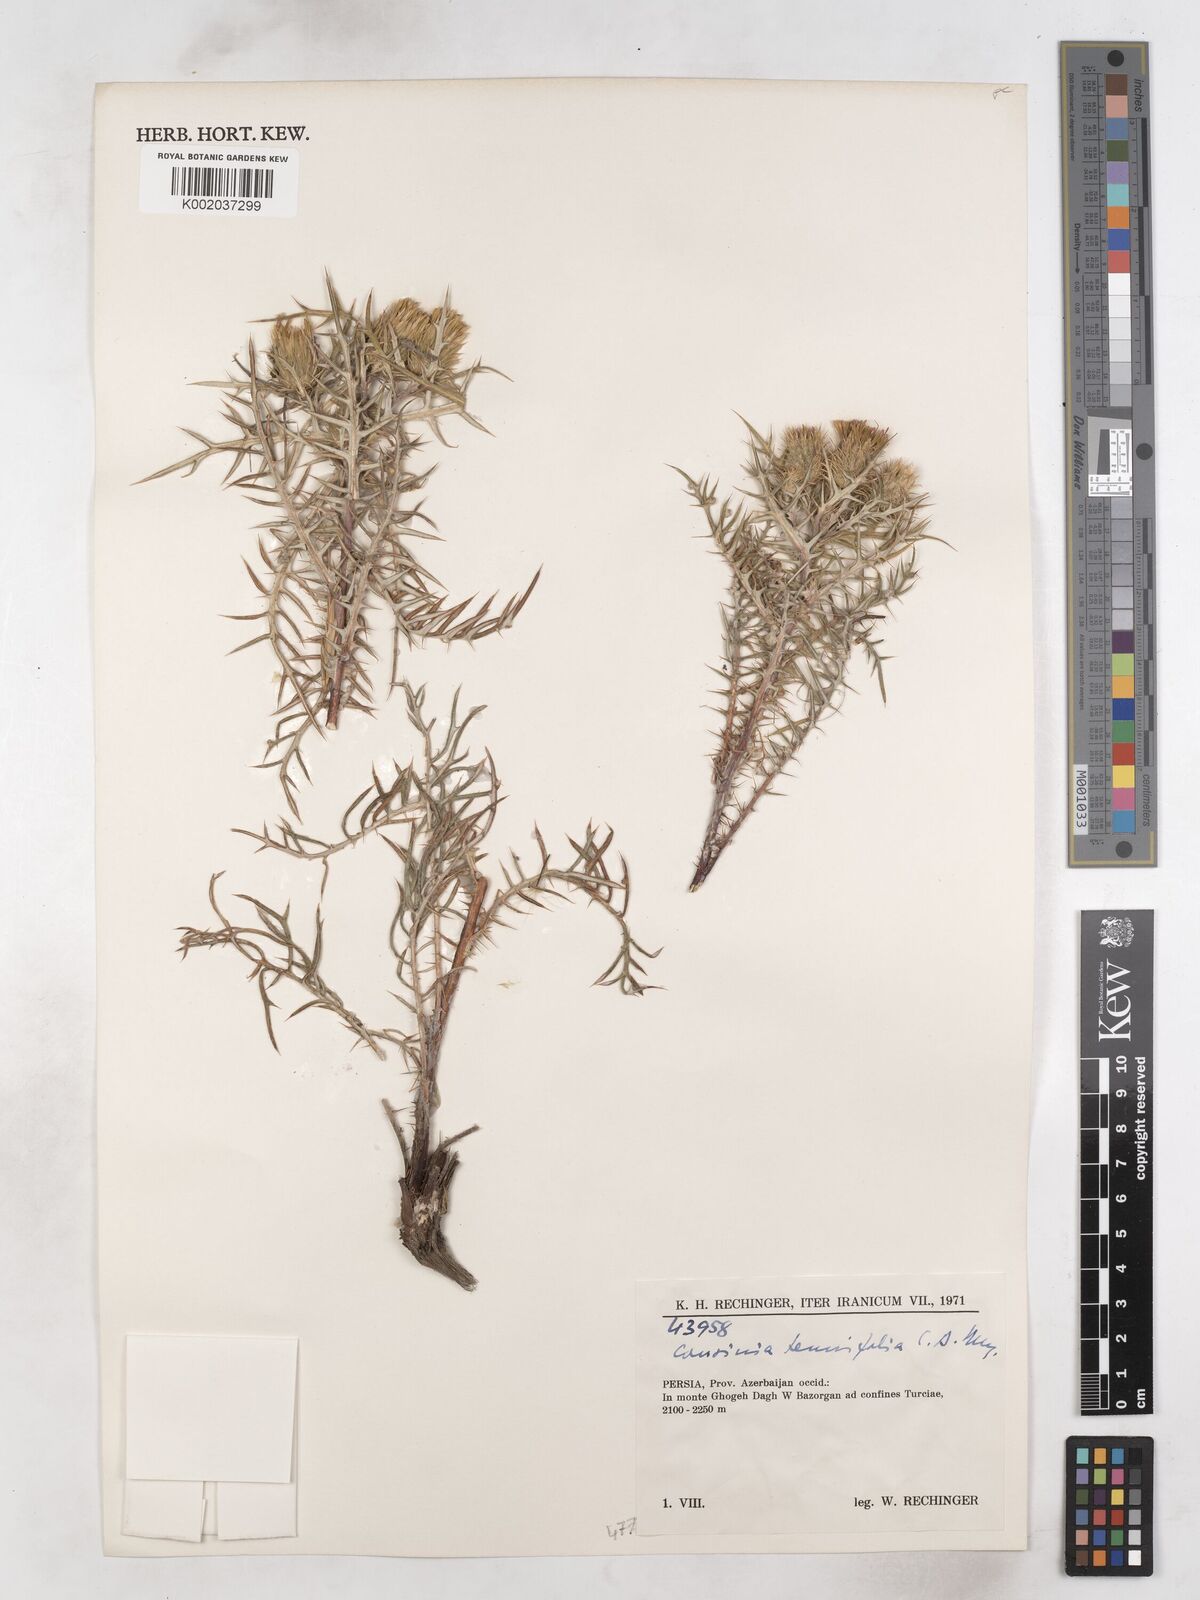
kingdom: Plantae
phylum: Tracheophyta
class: Magnoliopsida
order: Asterales
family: Asteraceae
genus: Cousinia
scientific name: Cousinia tenuifolia
